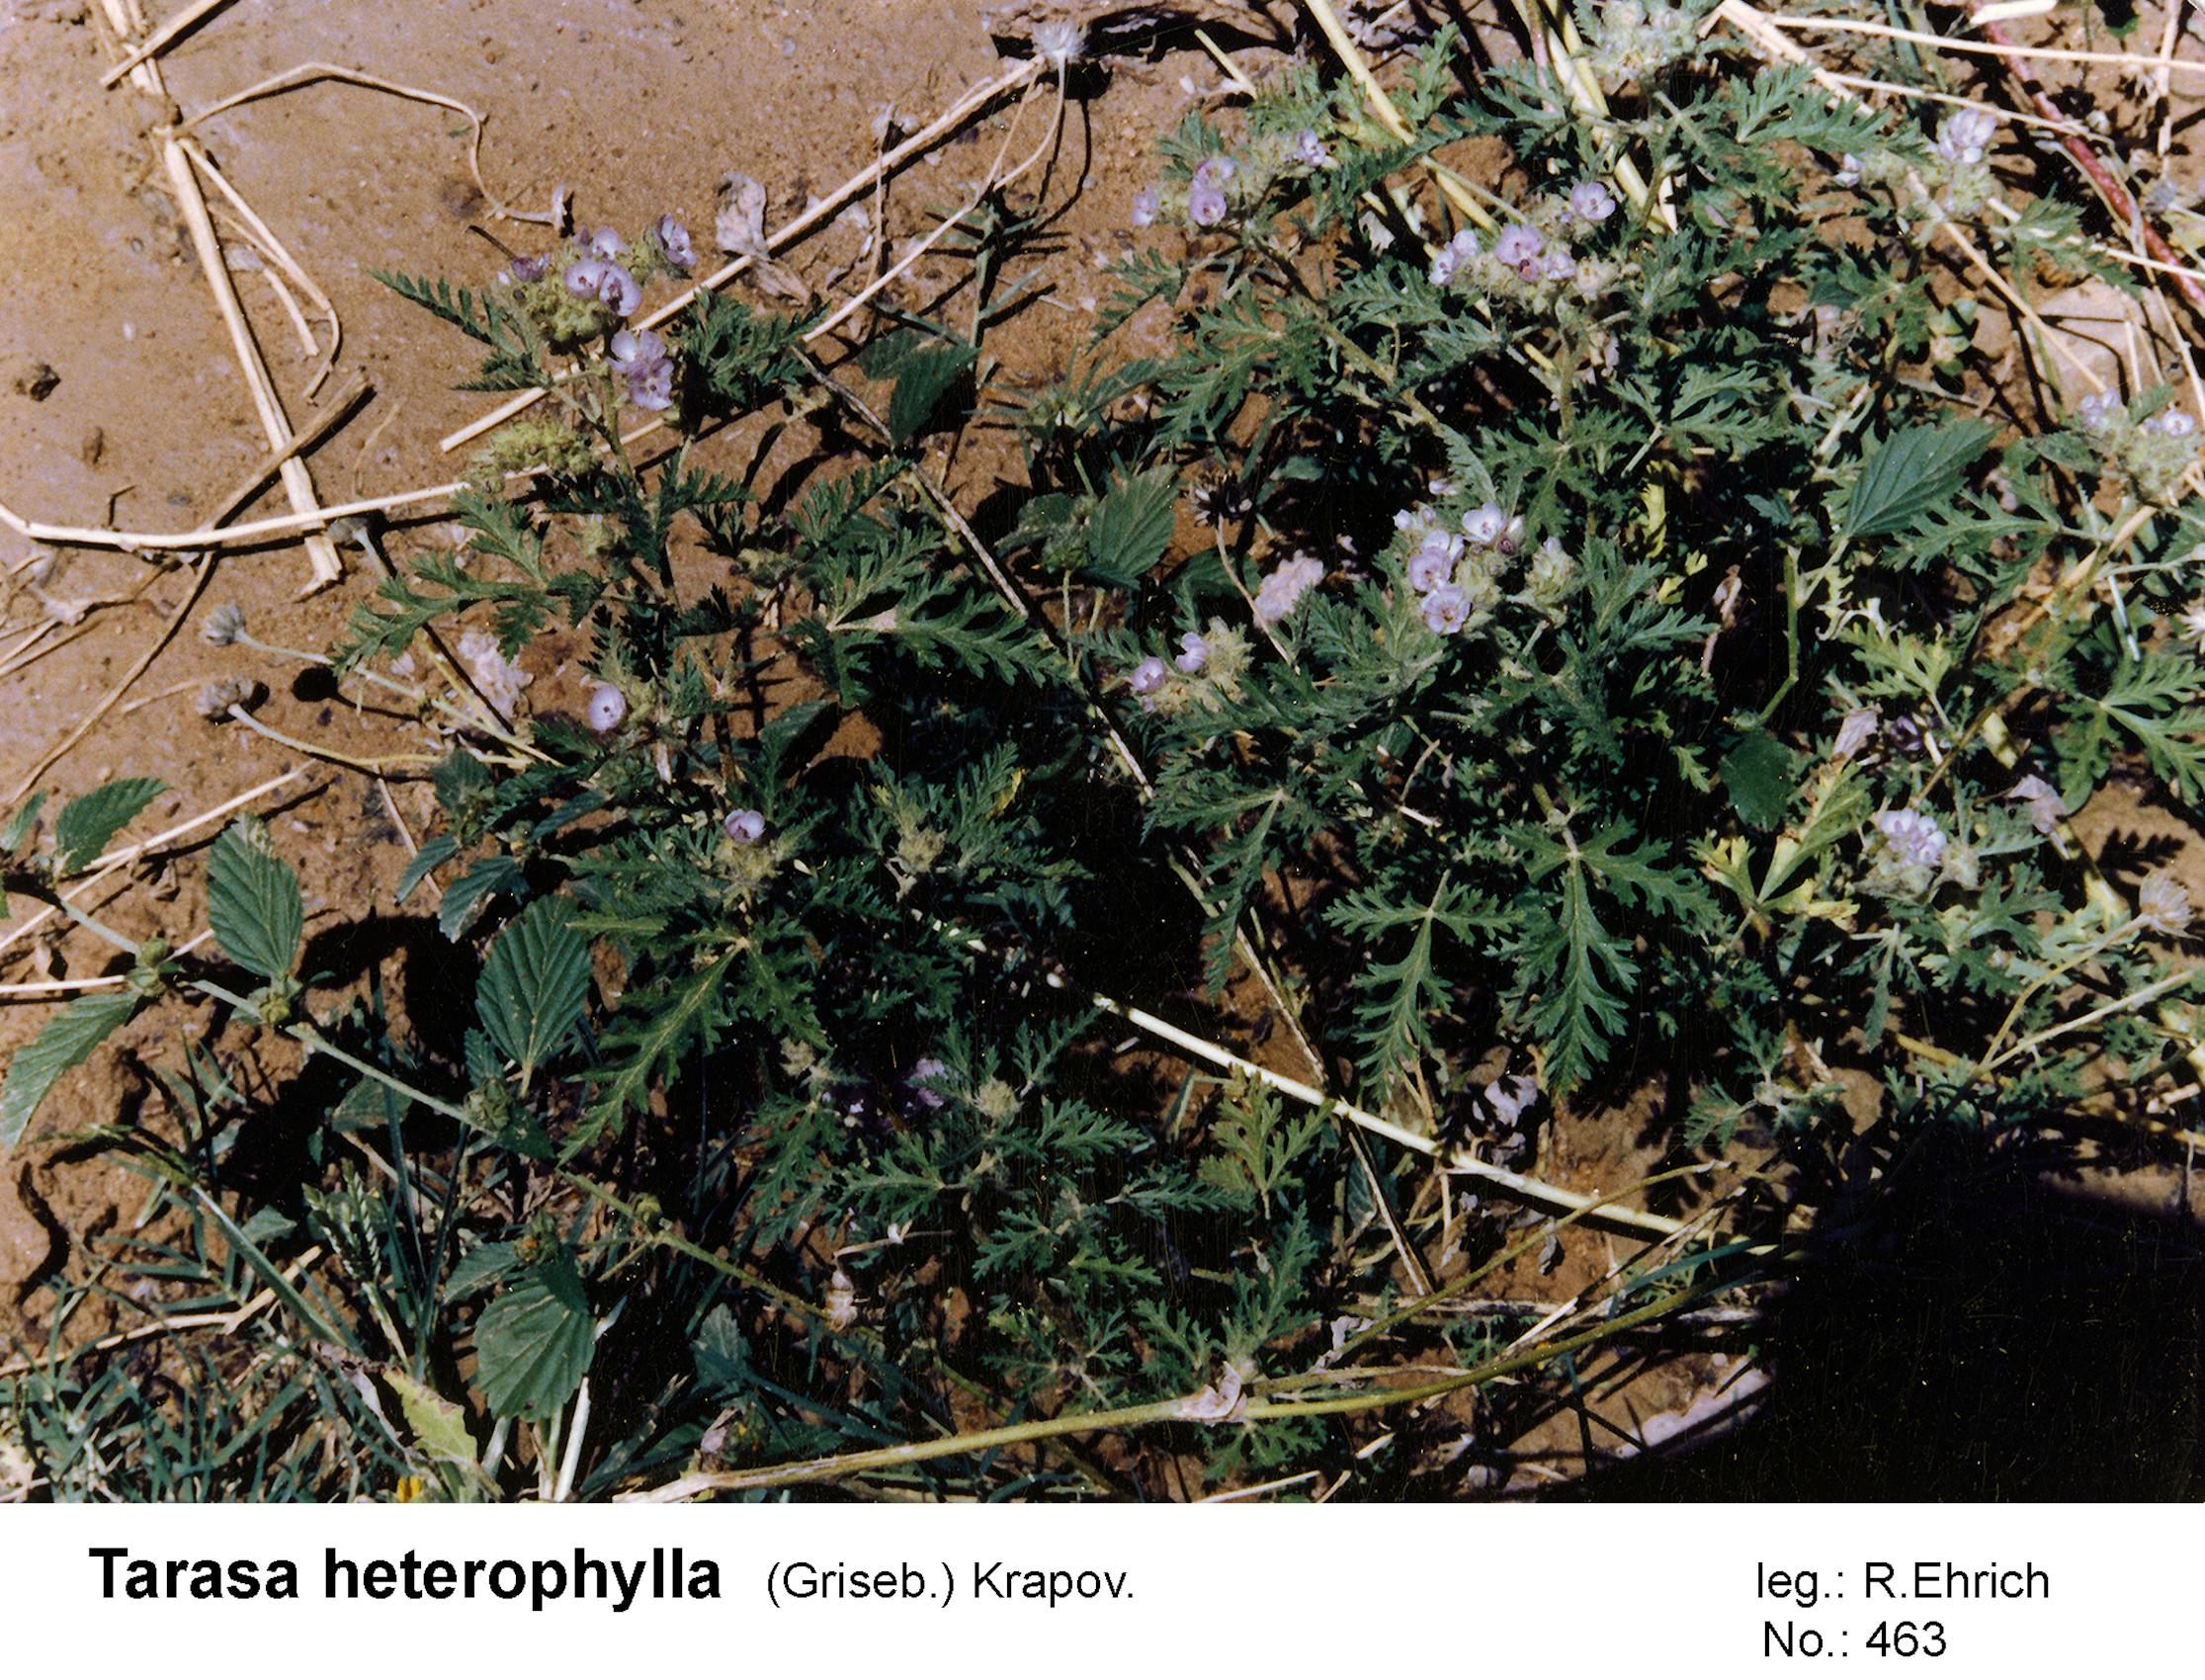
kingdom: Plantae
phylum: Tracheophyta
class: Magnoliopsida
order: Malvales
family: Malvaceae
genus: Tarasa
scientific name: Tarasa heterophylla
